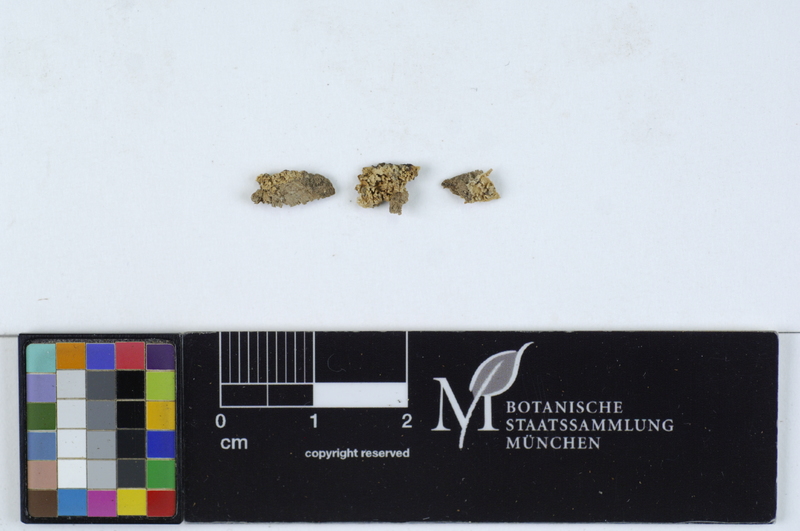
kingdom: Fungi
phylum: Basidiomycota
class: Agaricomycetes
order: Agaricales
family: Stephanosporaceae
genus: Cristinia
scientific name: Cristinia eichleri
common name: Dentists' bane
